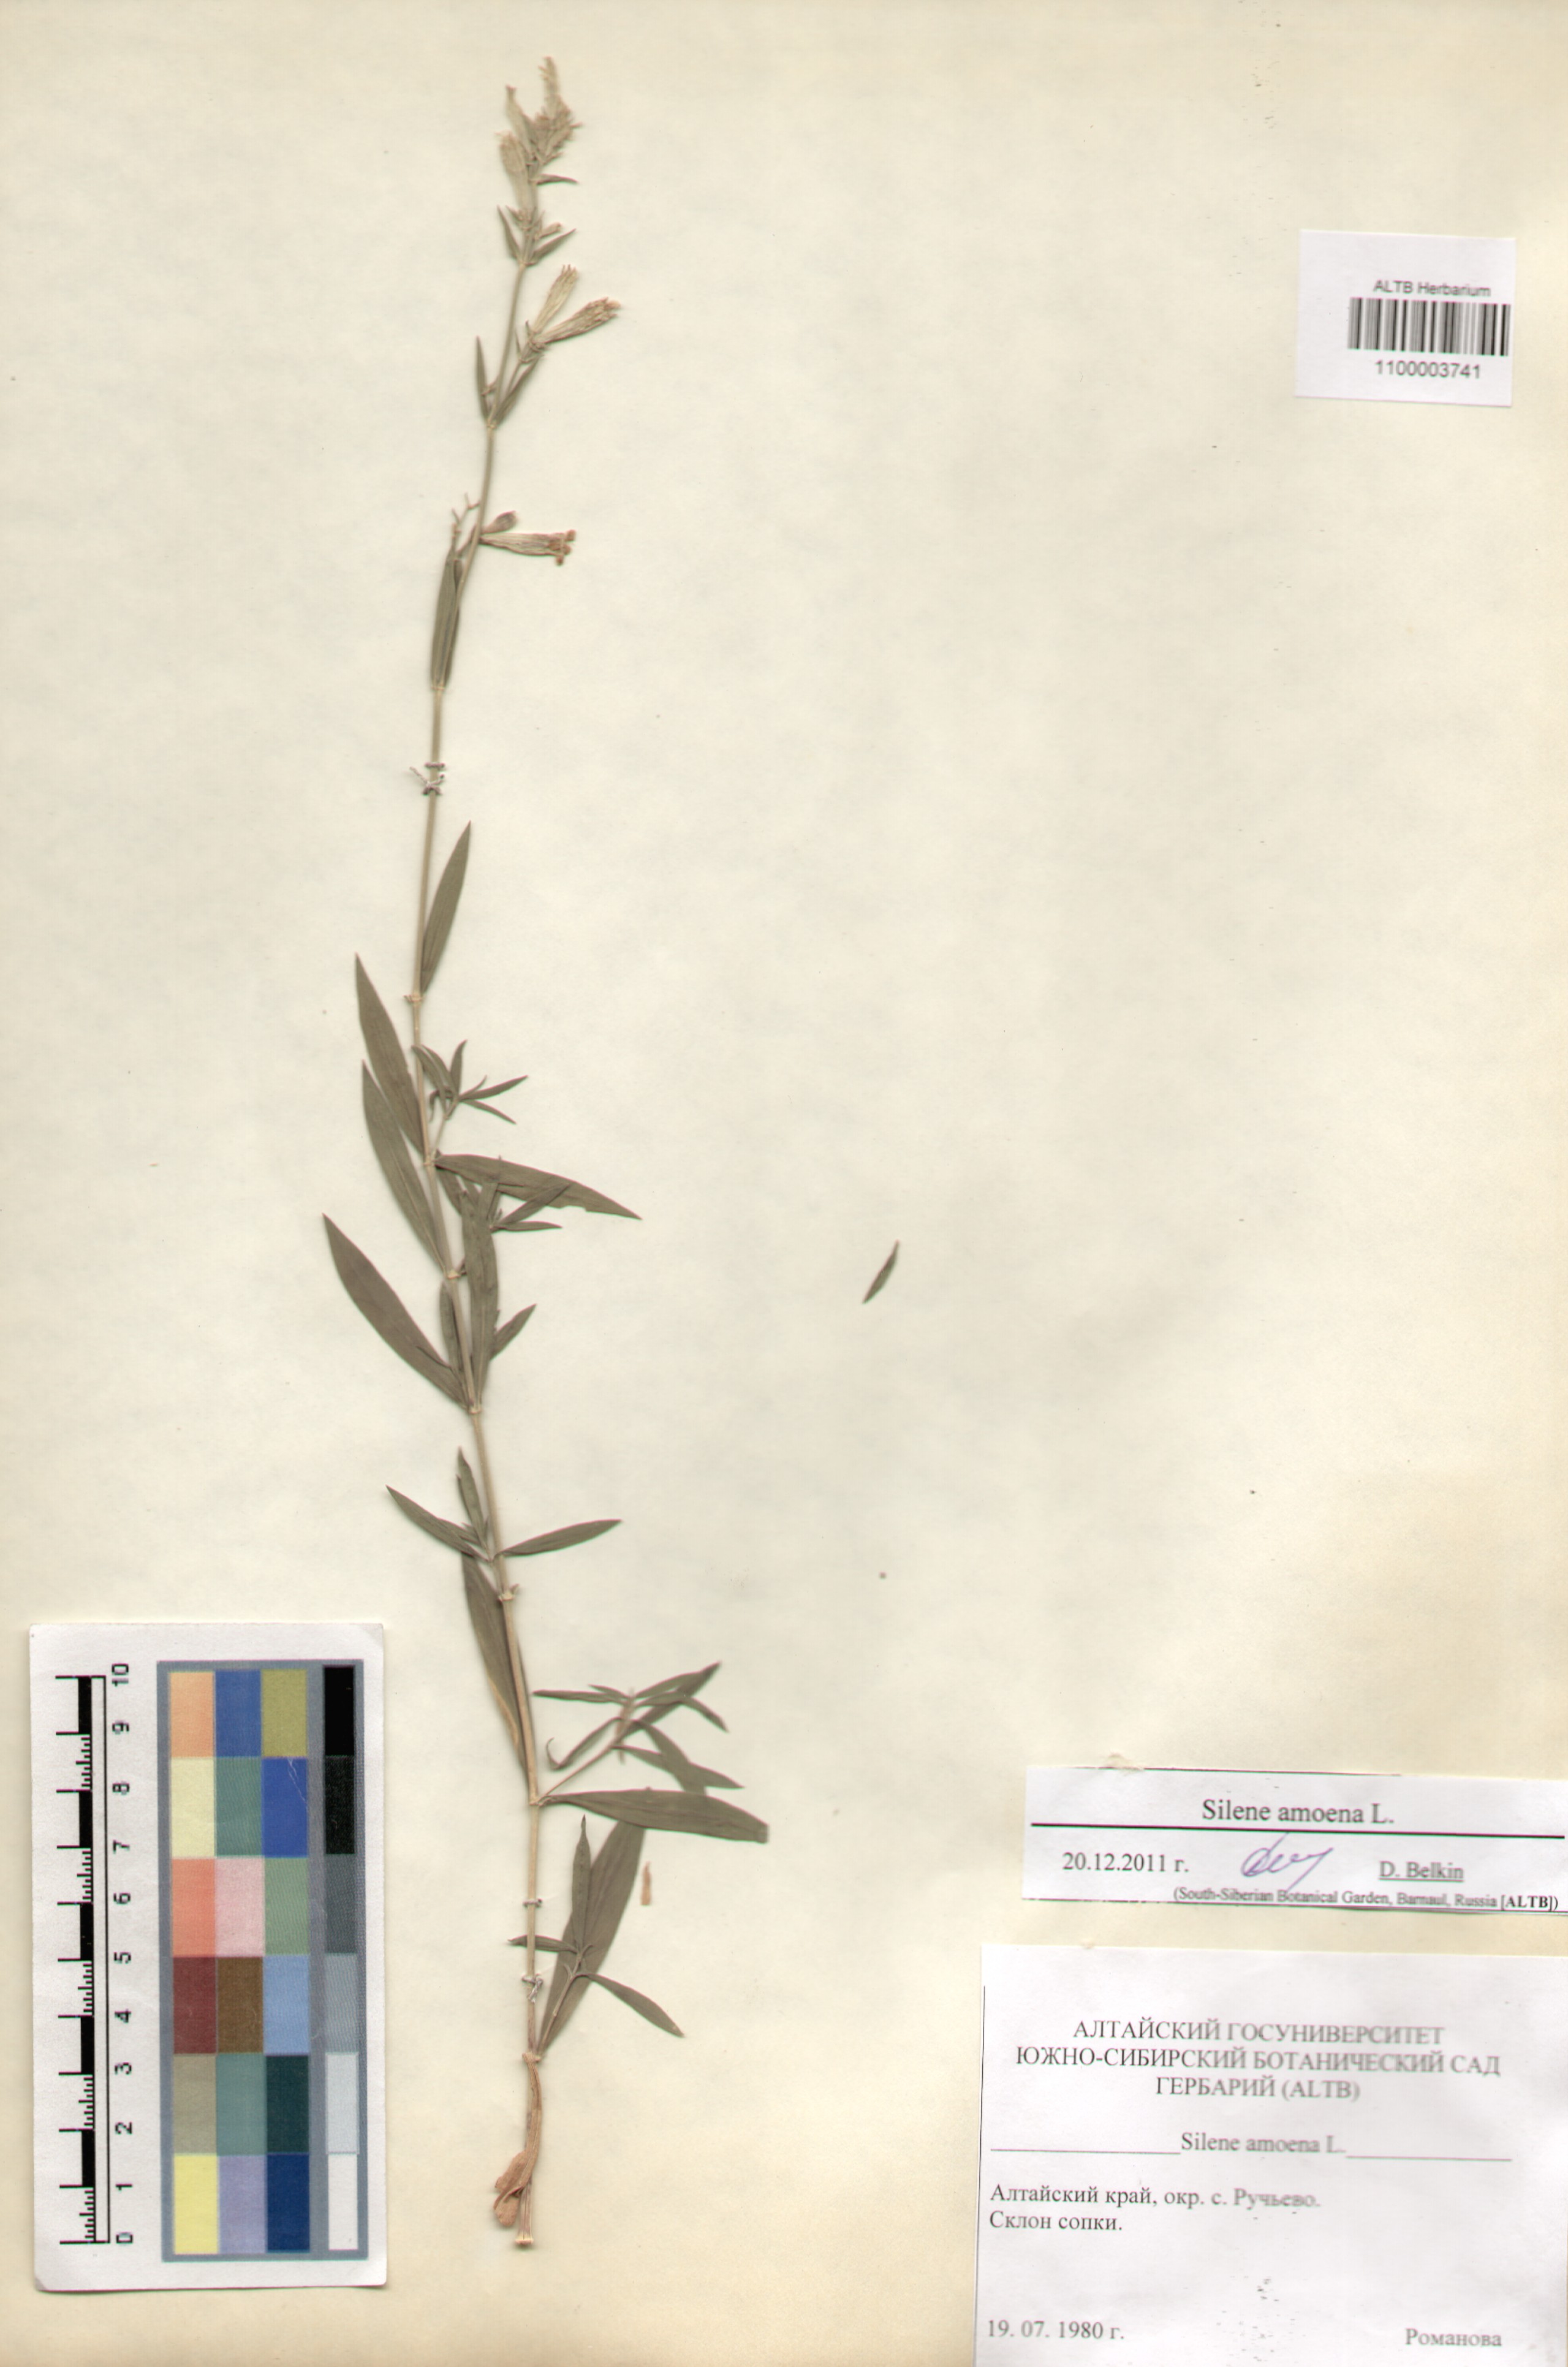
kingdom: Plantae
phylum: Tracheophyta
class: Magnoliopsida
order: Caryophyllales
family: Caryophyllaceae
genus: Silene
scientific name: Silene amoena
